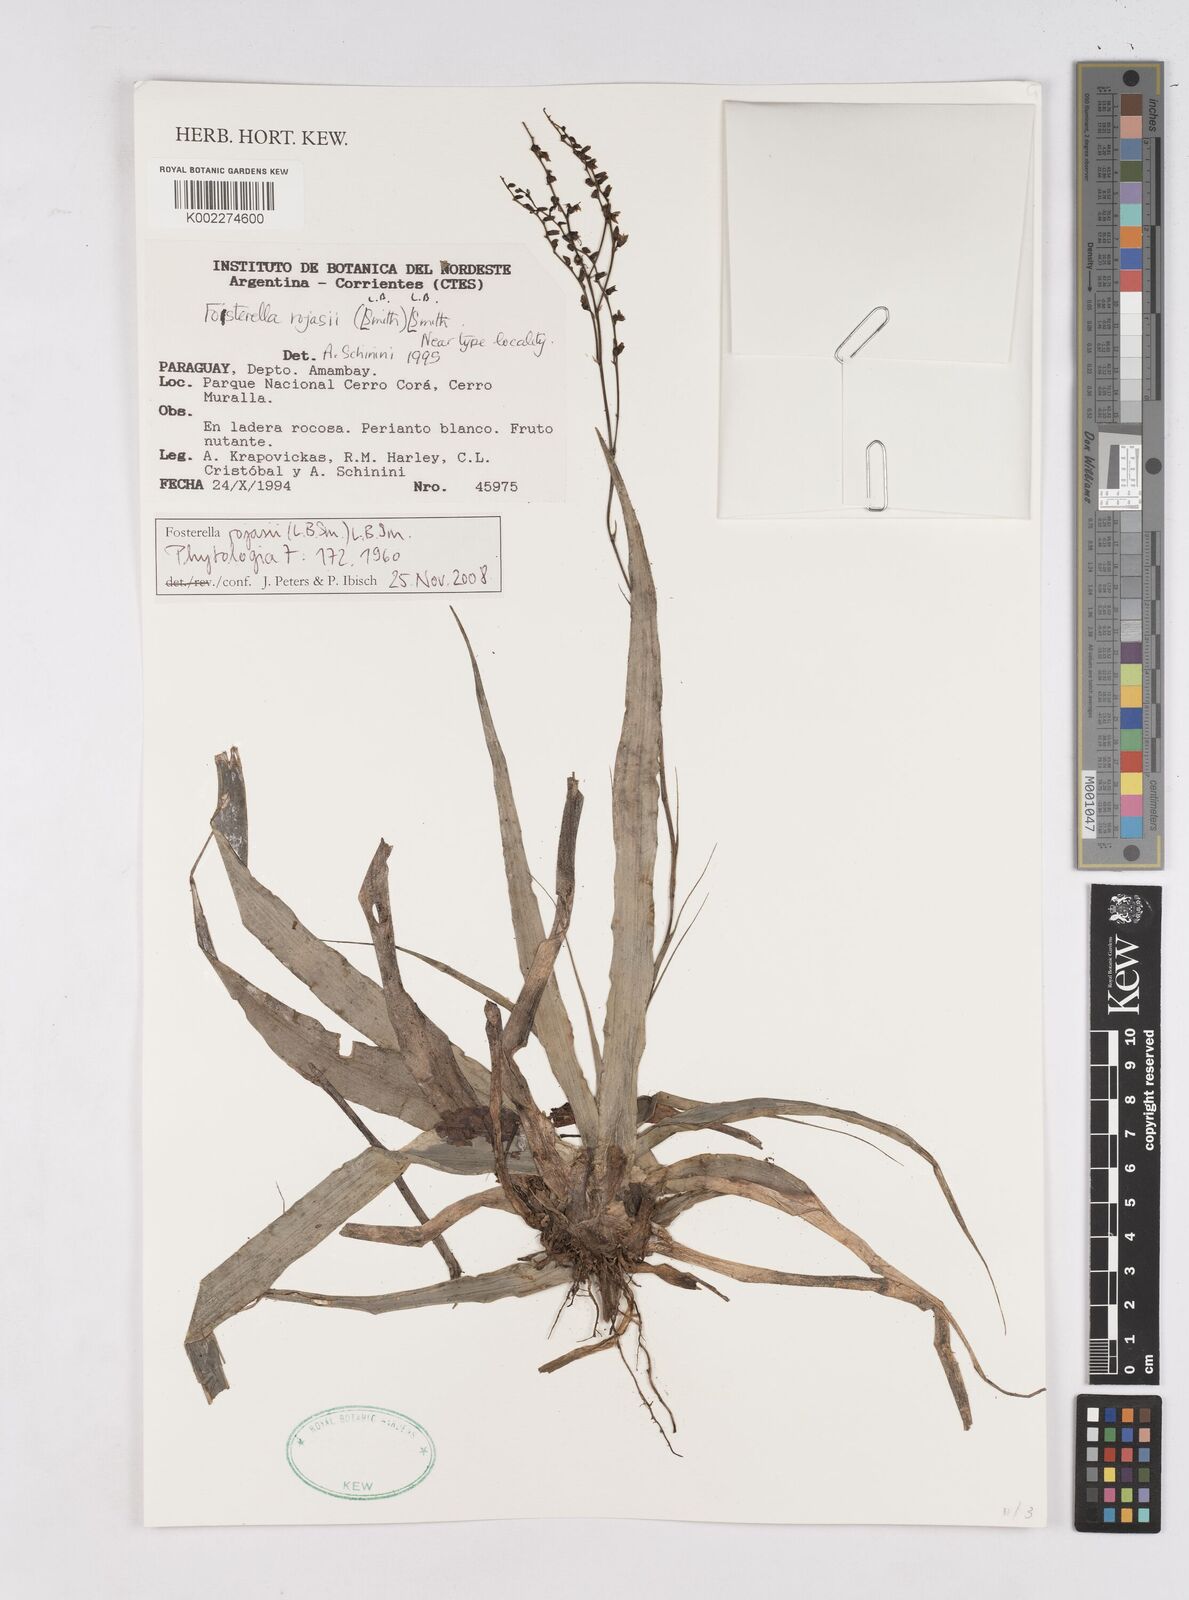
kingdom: Plantae
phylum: Tracheophyta
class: Liliopsida
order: Poales
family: Bromeliaceae
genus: Fosterella
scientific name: Fosterella rojasii
